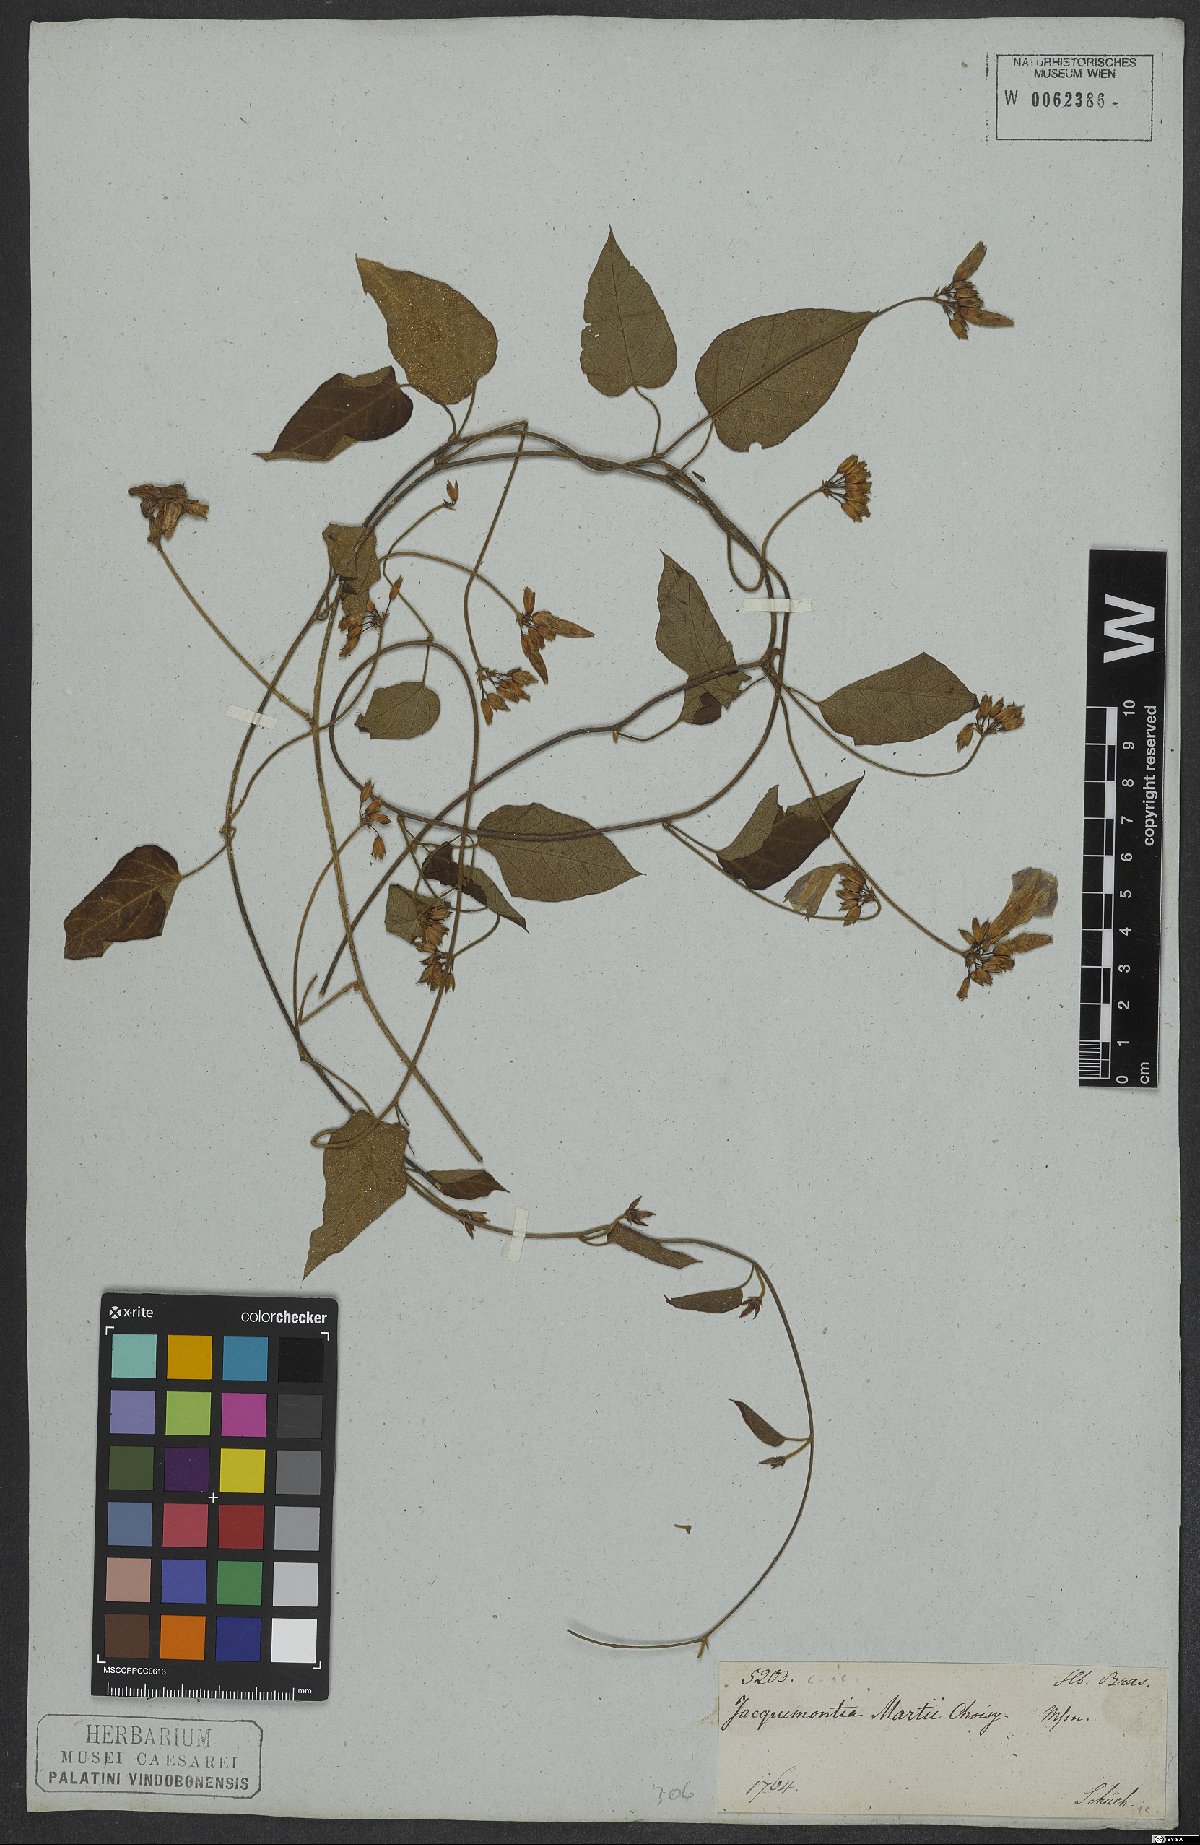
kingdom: Plantae
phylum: Tracheophyta
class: Magnoliopsida
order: Solanales
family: Convolvulaceae
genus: Jacquemontia
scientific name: Jacquemontia martii
